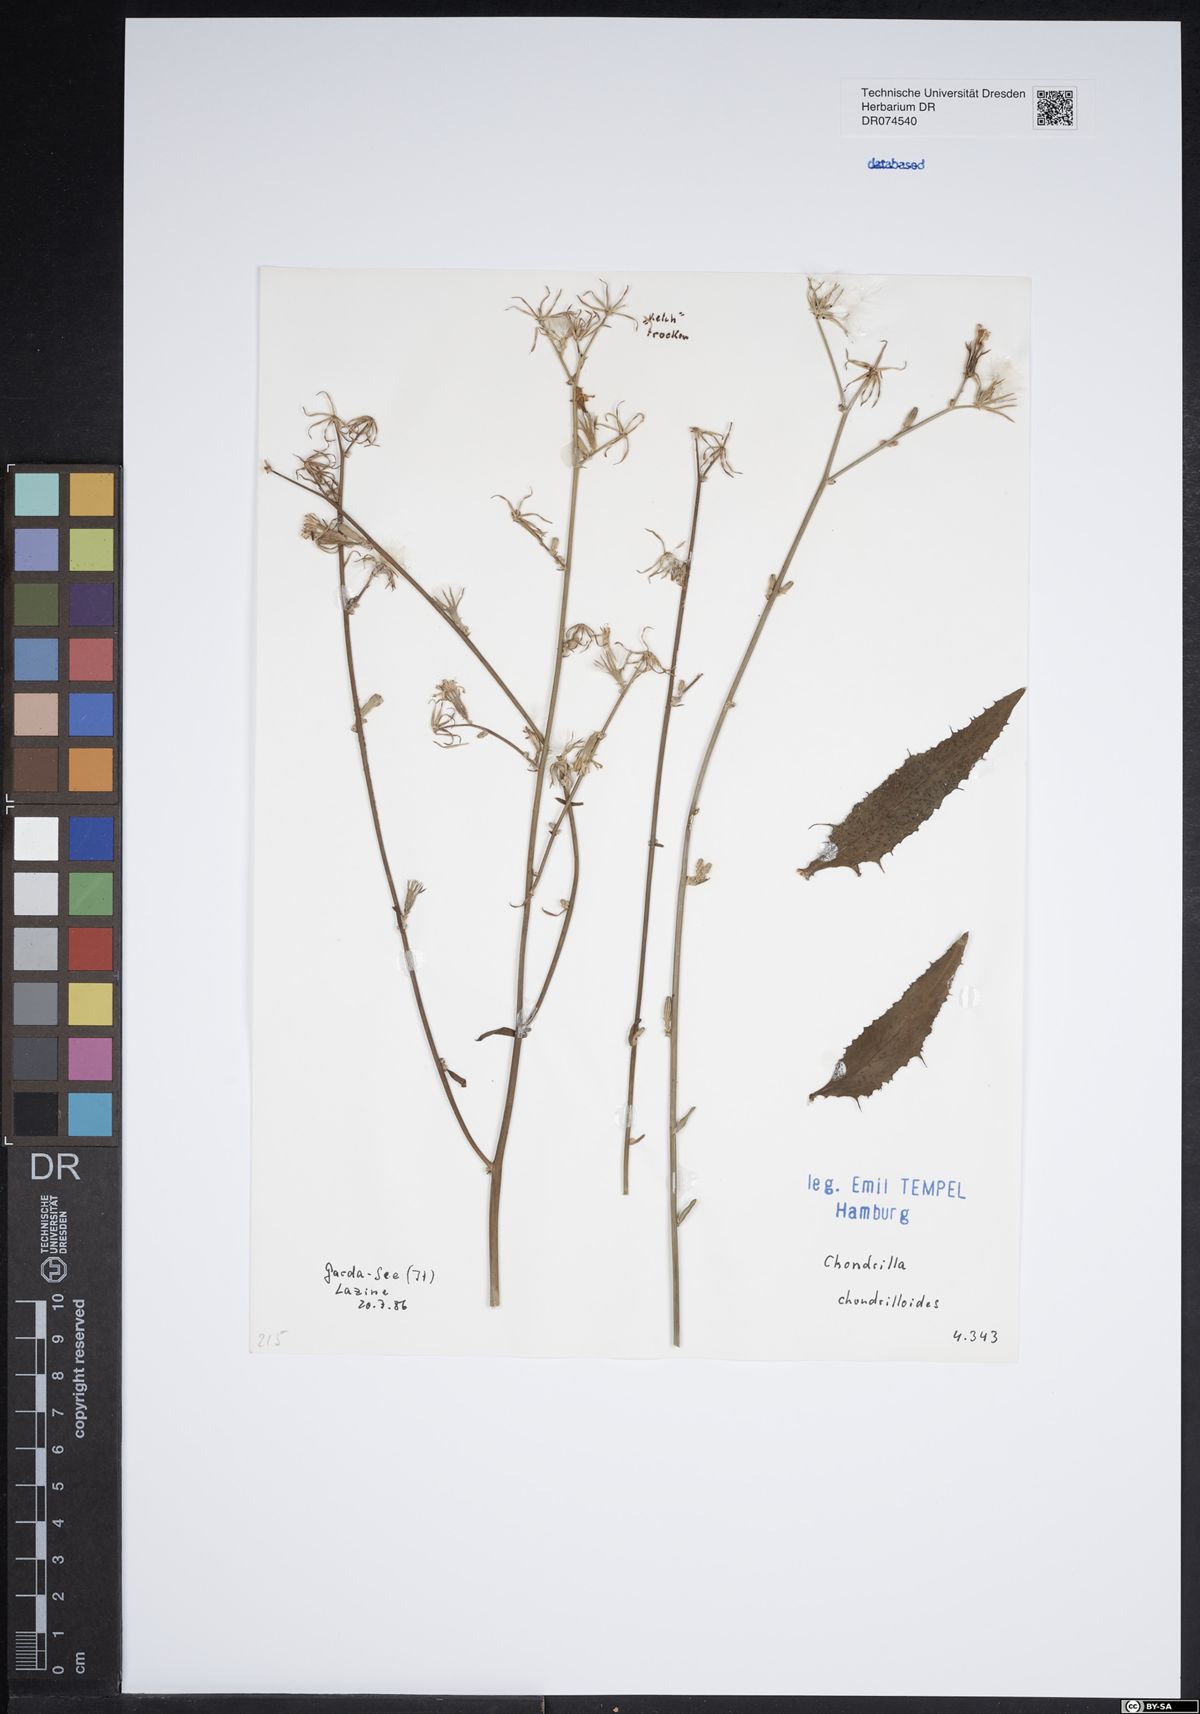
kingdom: Plantae
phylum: Tracheophyta
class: Magnoliopsida
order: Asterales
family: Asteraceae
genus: Chondrilla
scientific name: Chondrilla chondrilloides
